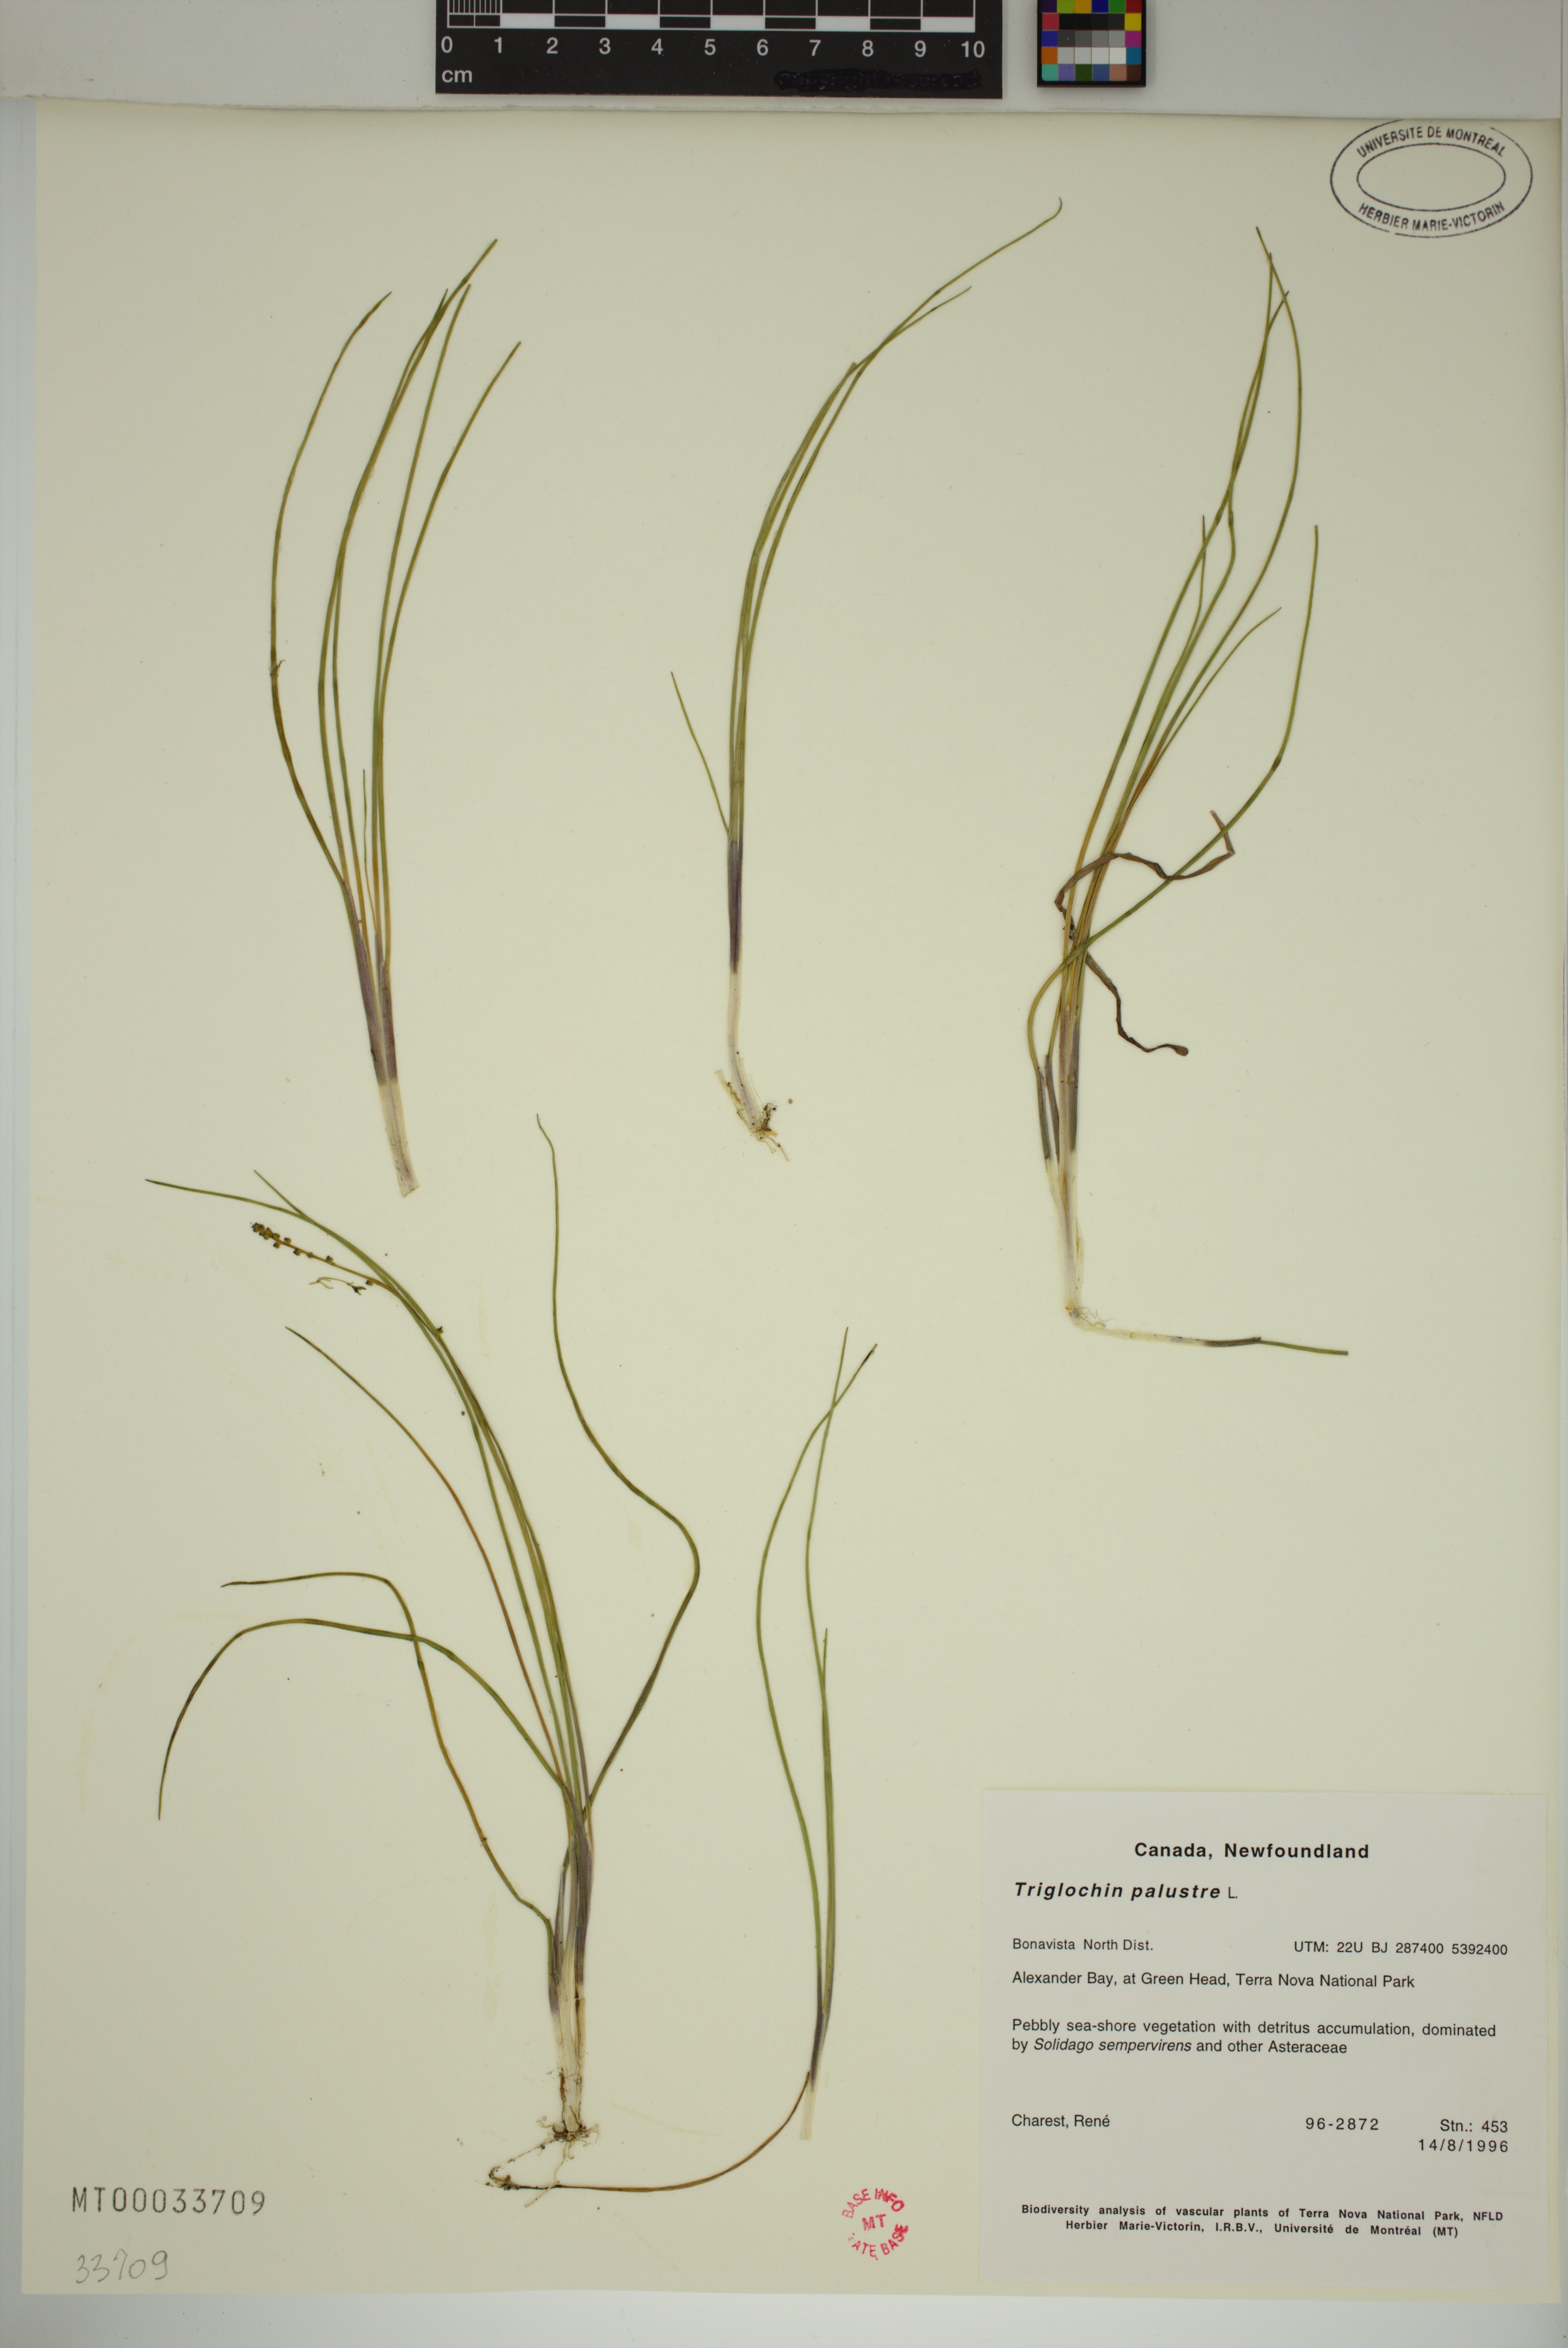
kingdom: Plantae
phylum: Tracheophyta
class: Liliopsida
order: Alismatales
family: Juncaginaceae
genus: Triglochin
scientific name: Triglochin palustris
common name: Marsh arrowgrass
